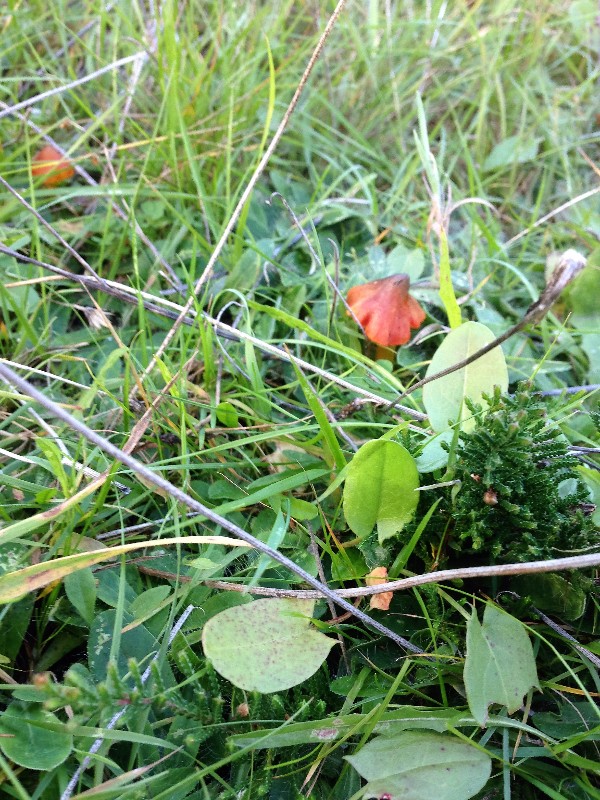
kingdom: Fungi
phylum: Basidiomycota
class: Agaricomycetes
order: Agaricales
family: Hygrophoraceae
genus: Hygrocybe
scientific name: Hygrocybe conica
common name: kegle-vokshat
